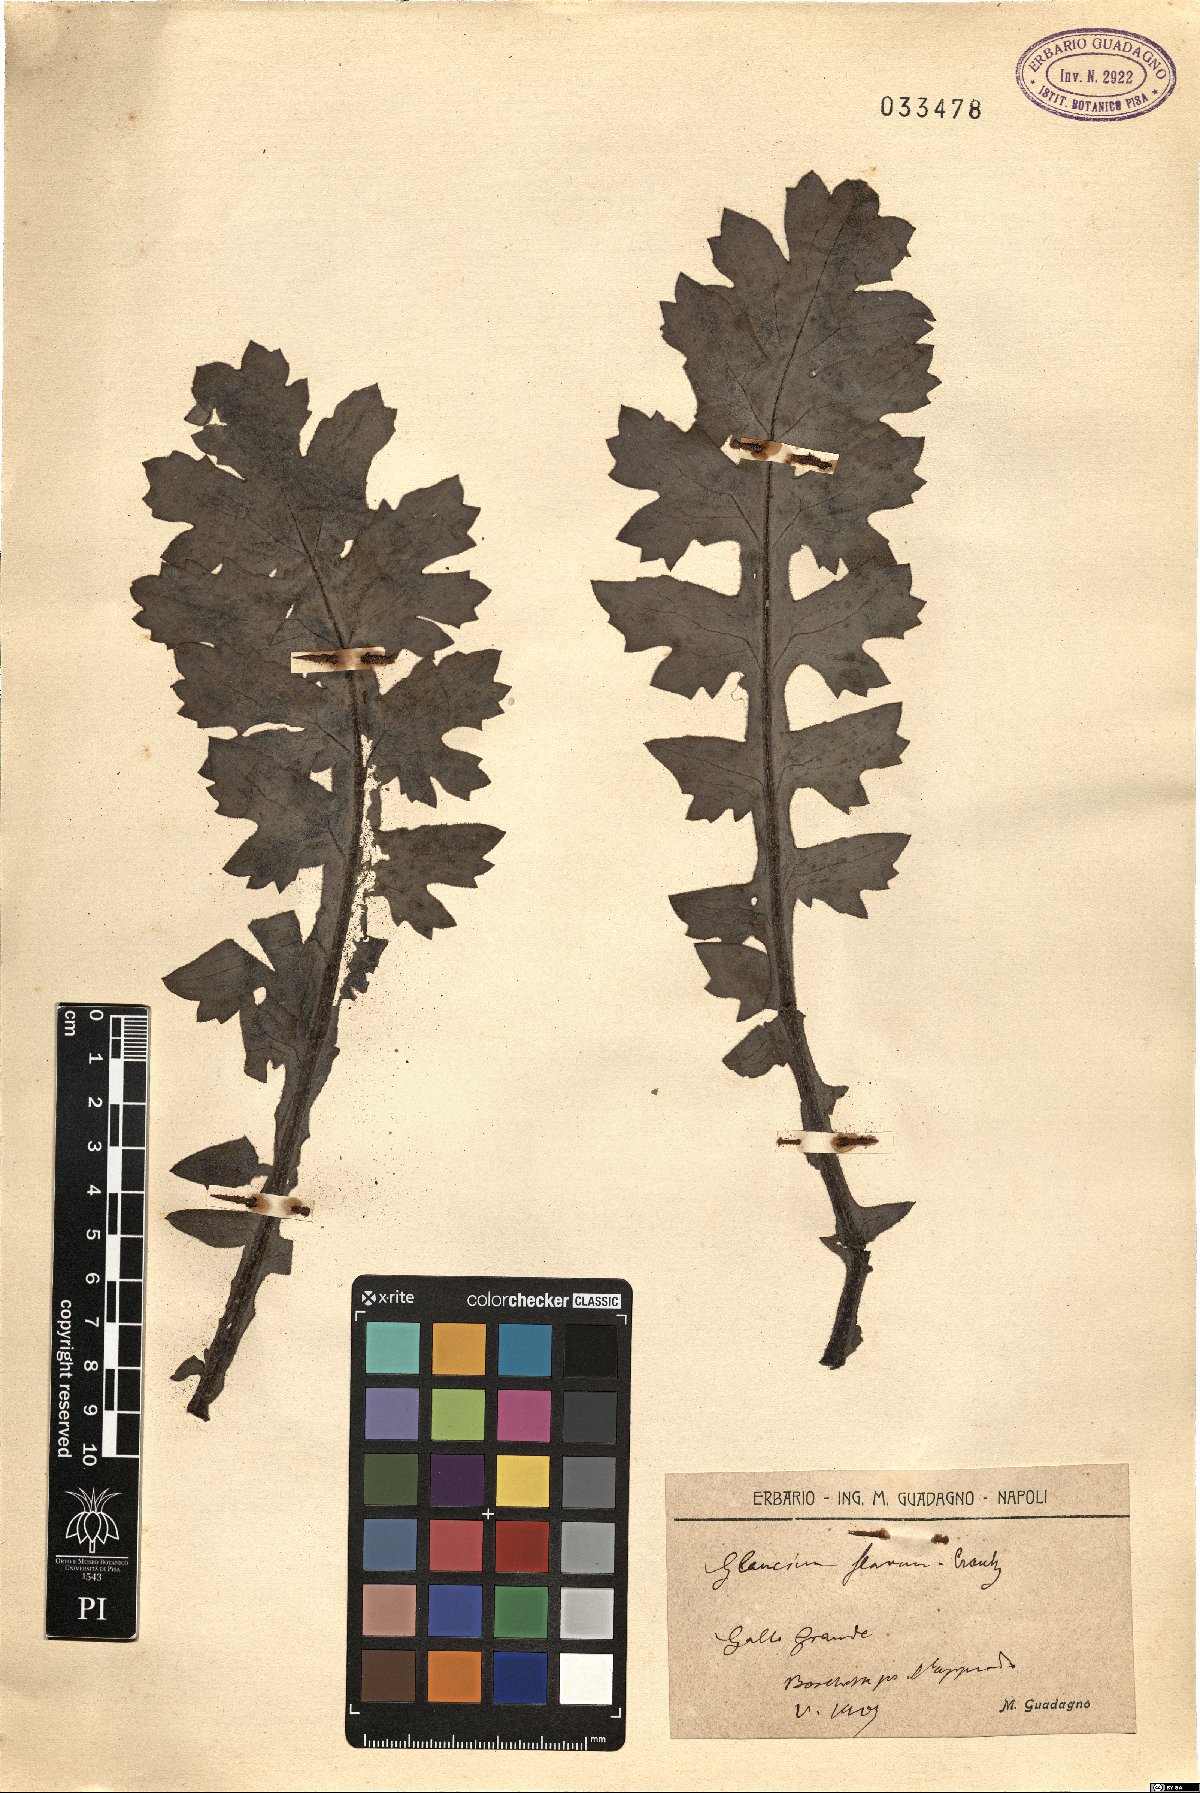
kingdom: Plantae
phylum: Tracheophyta
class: Magnoliopsida
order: Ranunculales
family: Papaveraceae
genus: Glaucium
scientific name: Glaucium flavum
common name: Yellow horned-poppy
